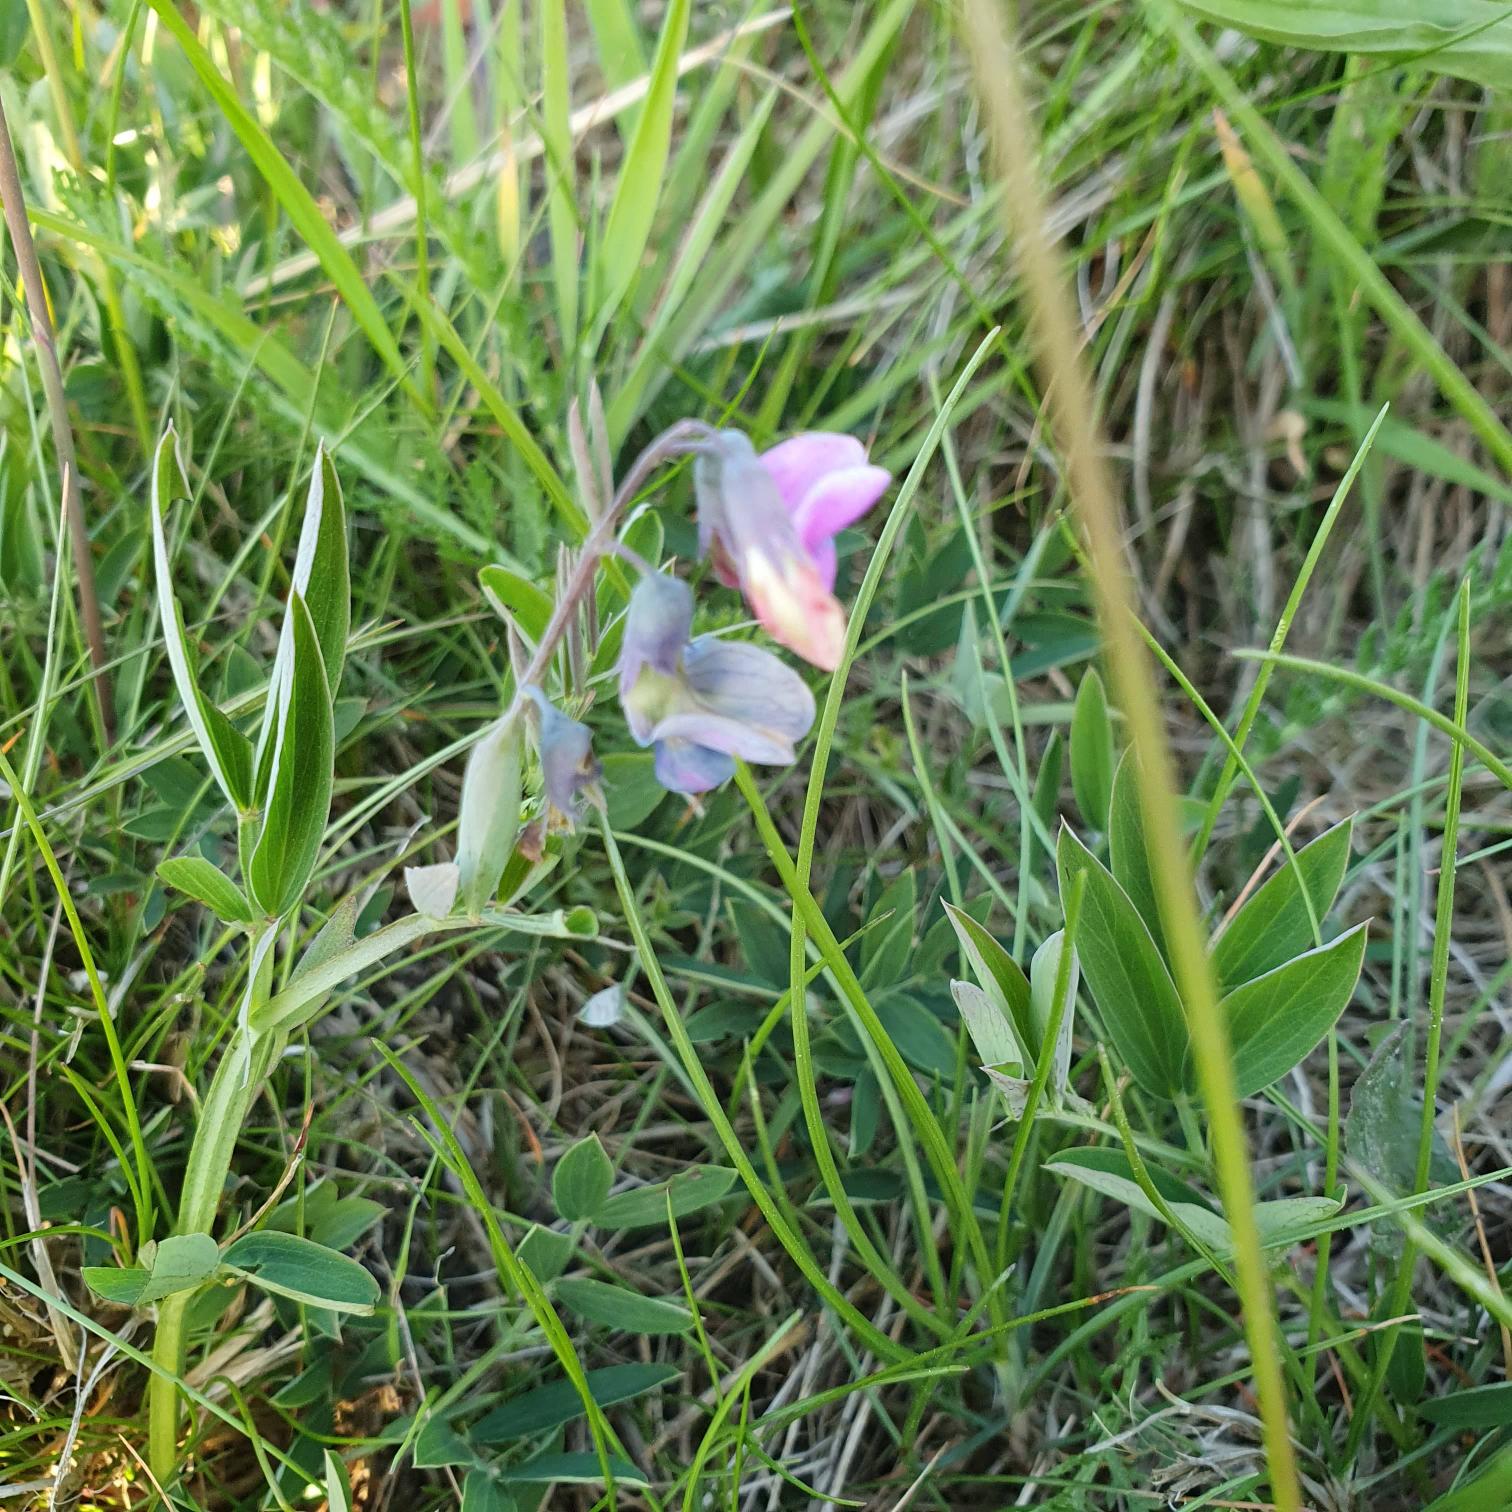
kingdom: Plantae
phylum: Tracheophyta
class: Magnoliopsida
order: Fabales
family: Fabaceae
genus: Lathyrus
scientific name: Lathyrus linifolius
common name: Krat-fladbælg
